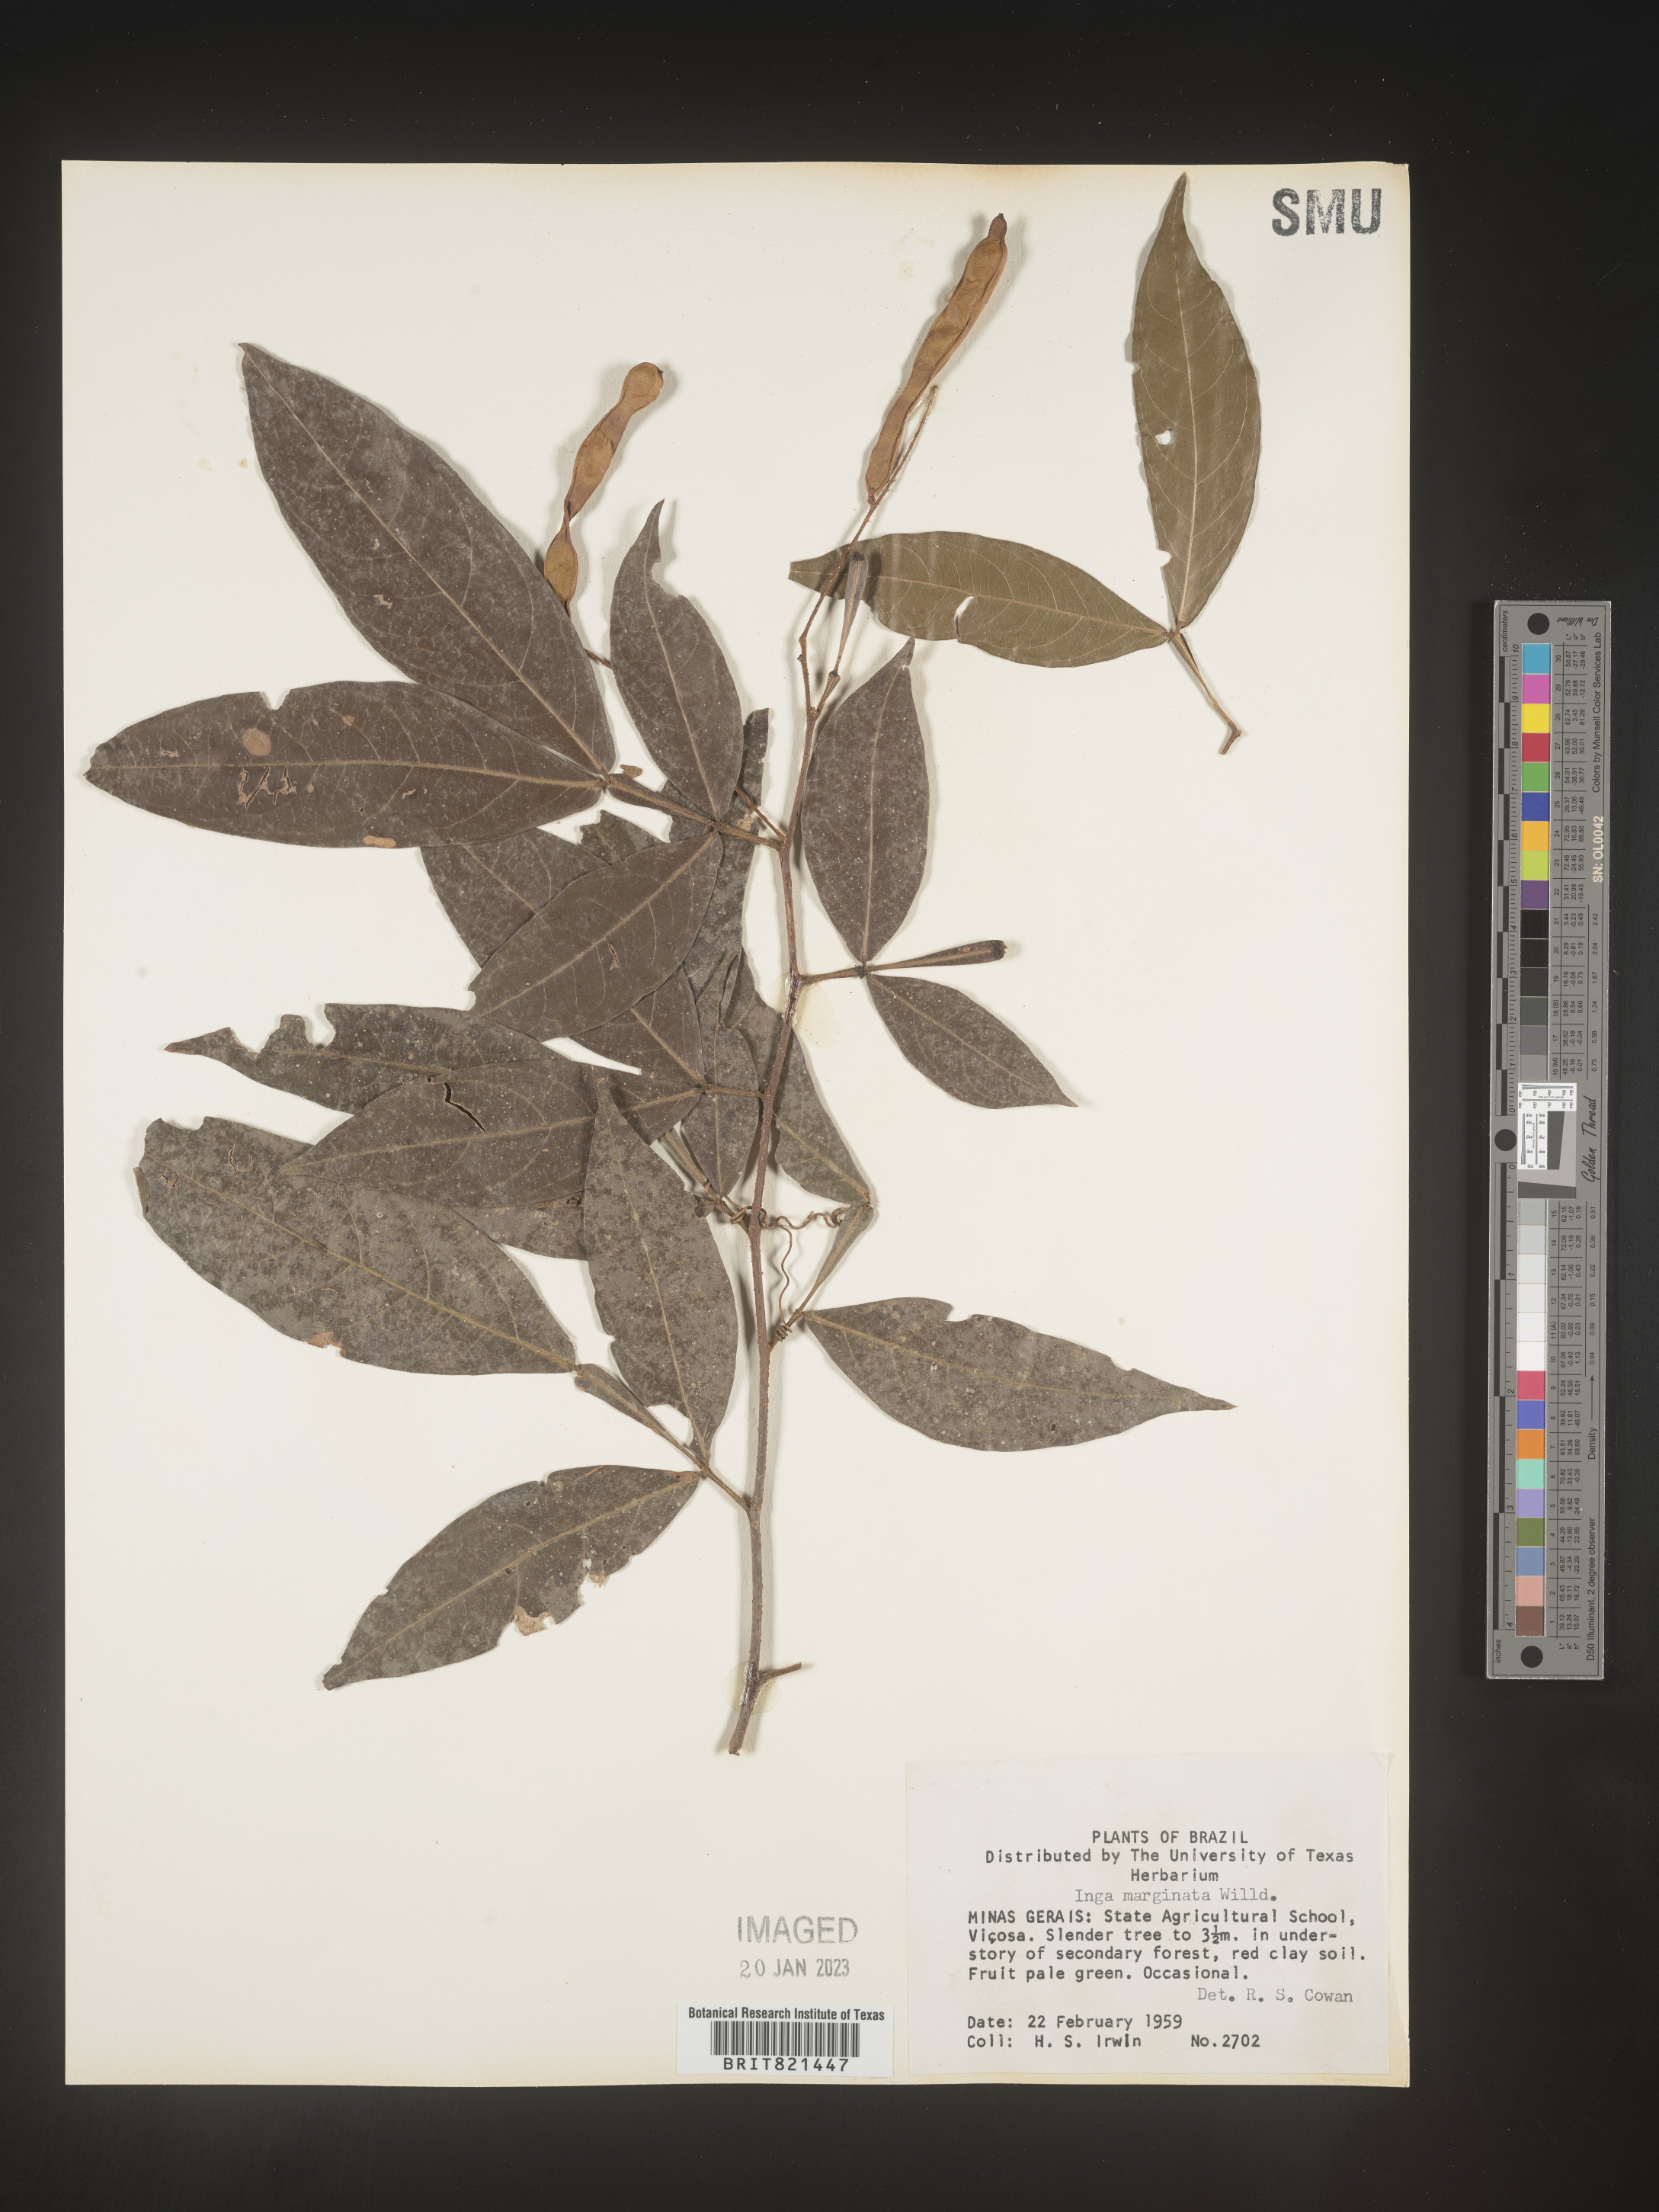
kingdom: Plantae
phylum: Tracheophyta
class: Magnoliopsida
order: Fabales
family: Fabaceae
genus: Inga
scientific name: Inga
